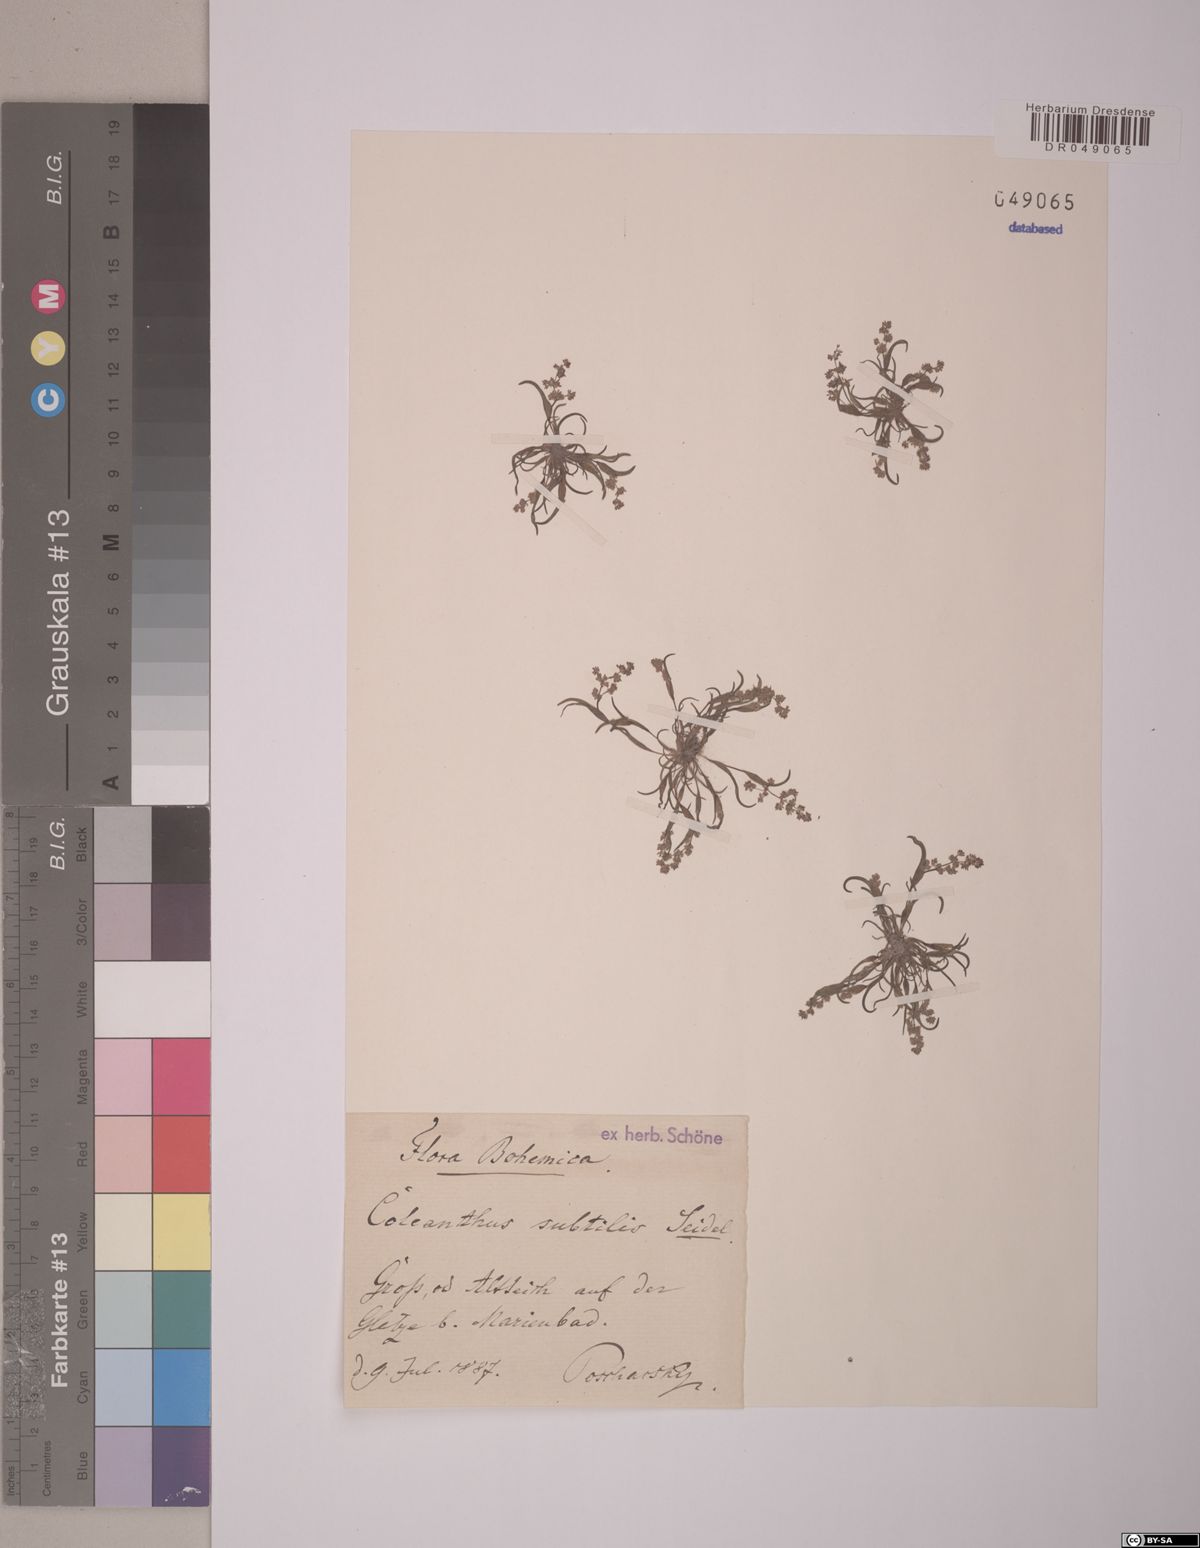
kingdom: Plantae
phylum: Tracheophyta
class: Liliopsida
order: Poales
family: Poaceae
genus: Coleanthus
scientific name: Coleanthus subtilis
